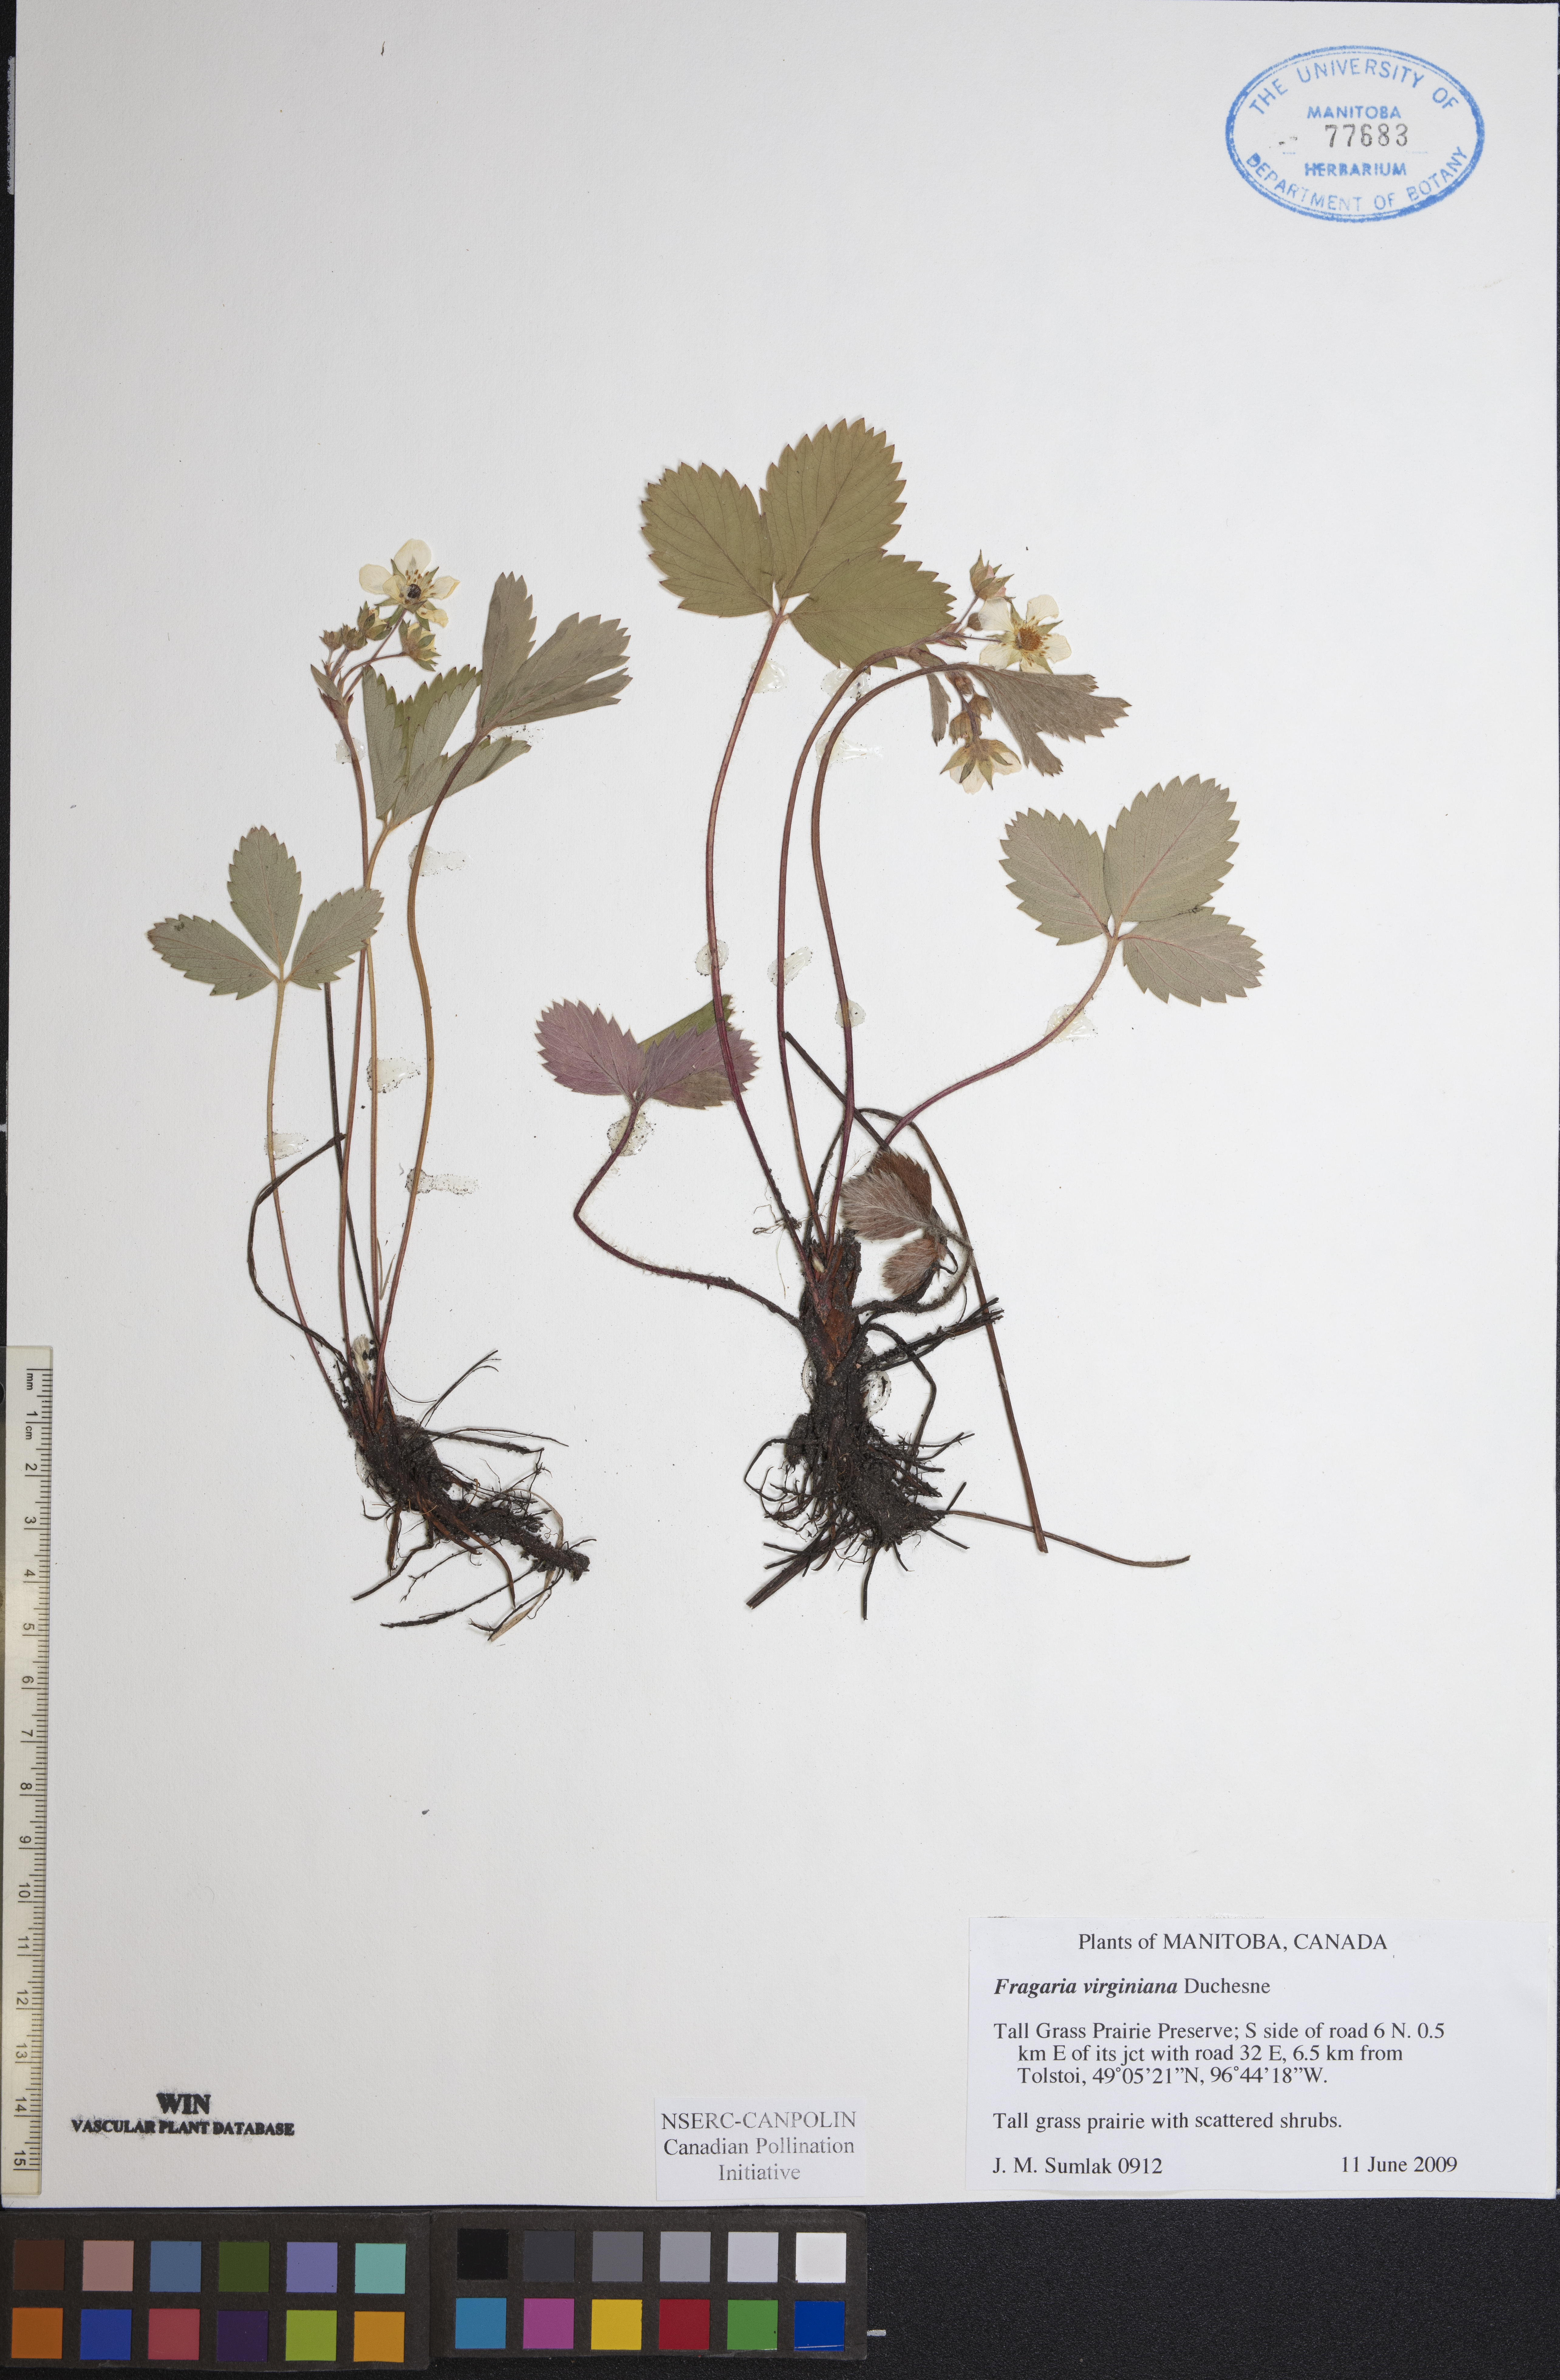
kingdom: Plantae
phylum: Tracheophyta
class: Magnoliopsida
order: Rosales
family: Rosaceae
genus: Fragaria
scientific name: Fragaria virginiana
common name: Thickleaved wild strawberry
